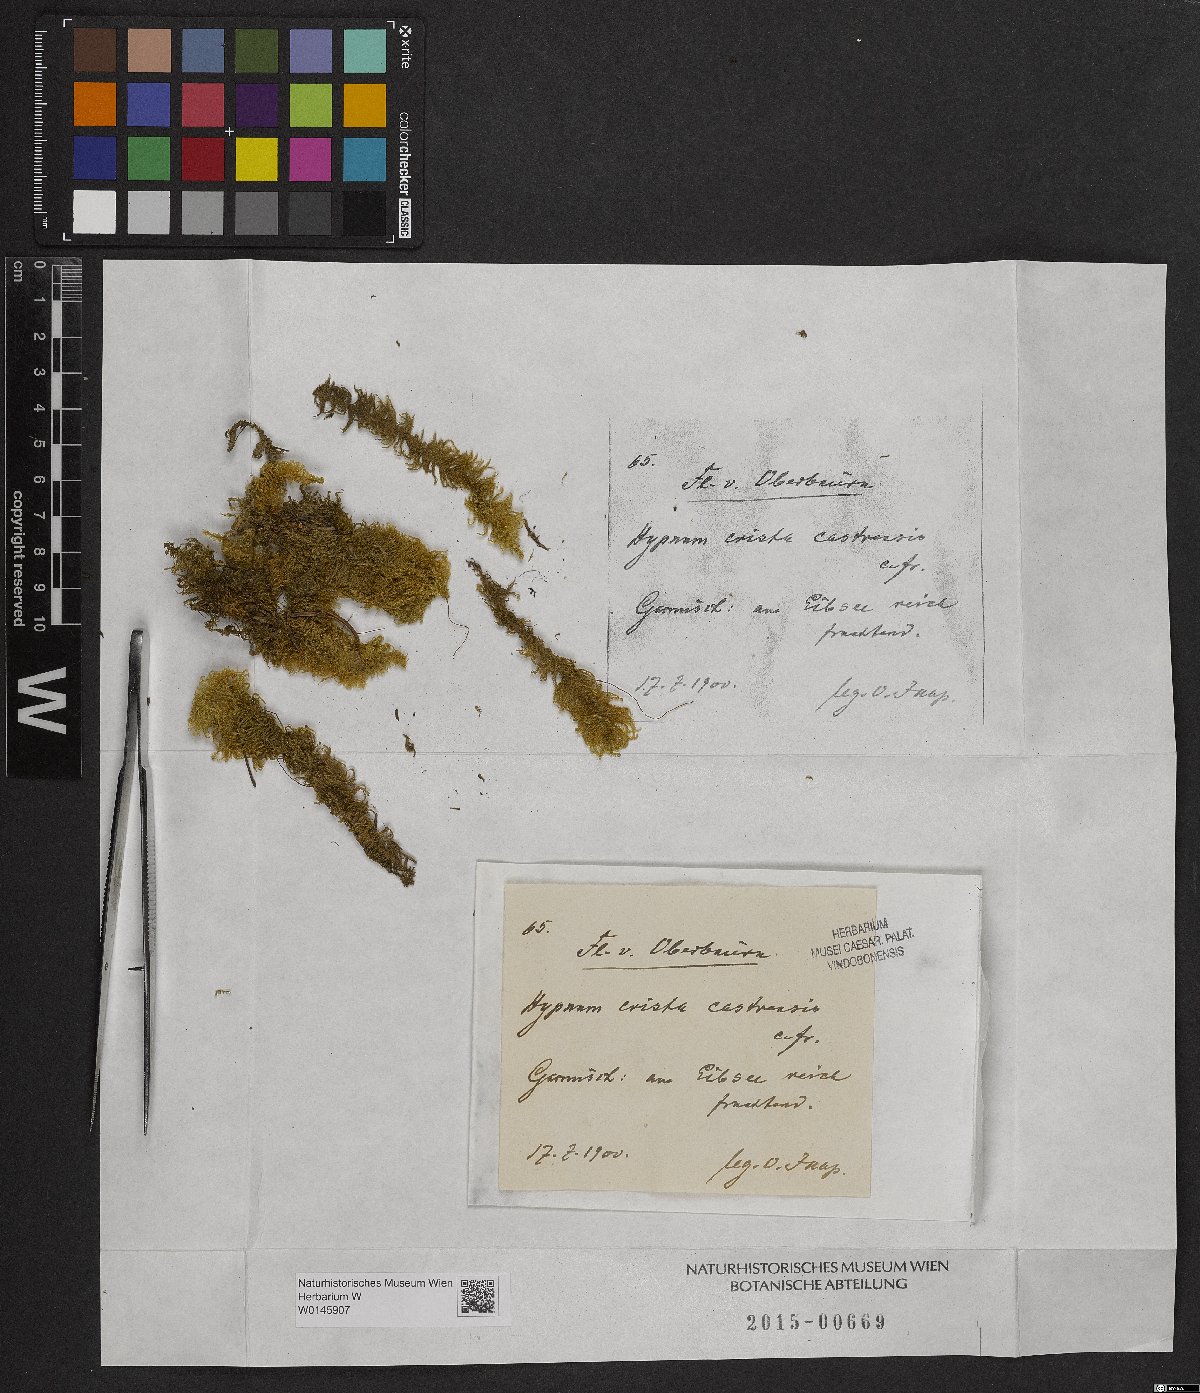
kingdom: Plantae
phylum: Bryophyta
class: Bryopsida
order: Hypnales
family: Pylaisiaceae
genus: Ptilium
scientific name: Ptilium crista-castrensis
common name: Knight's plume moss
